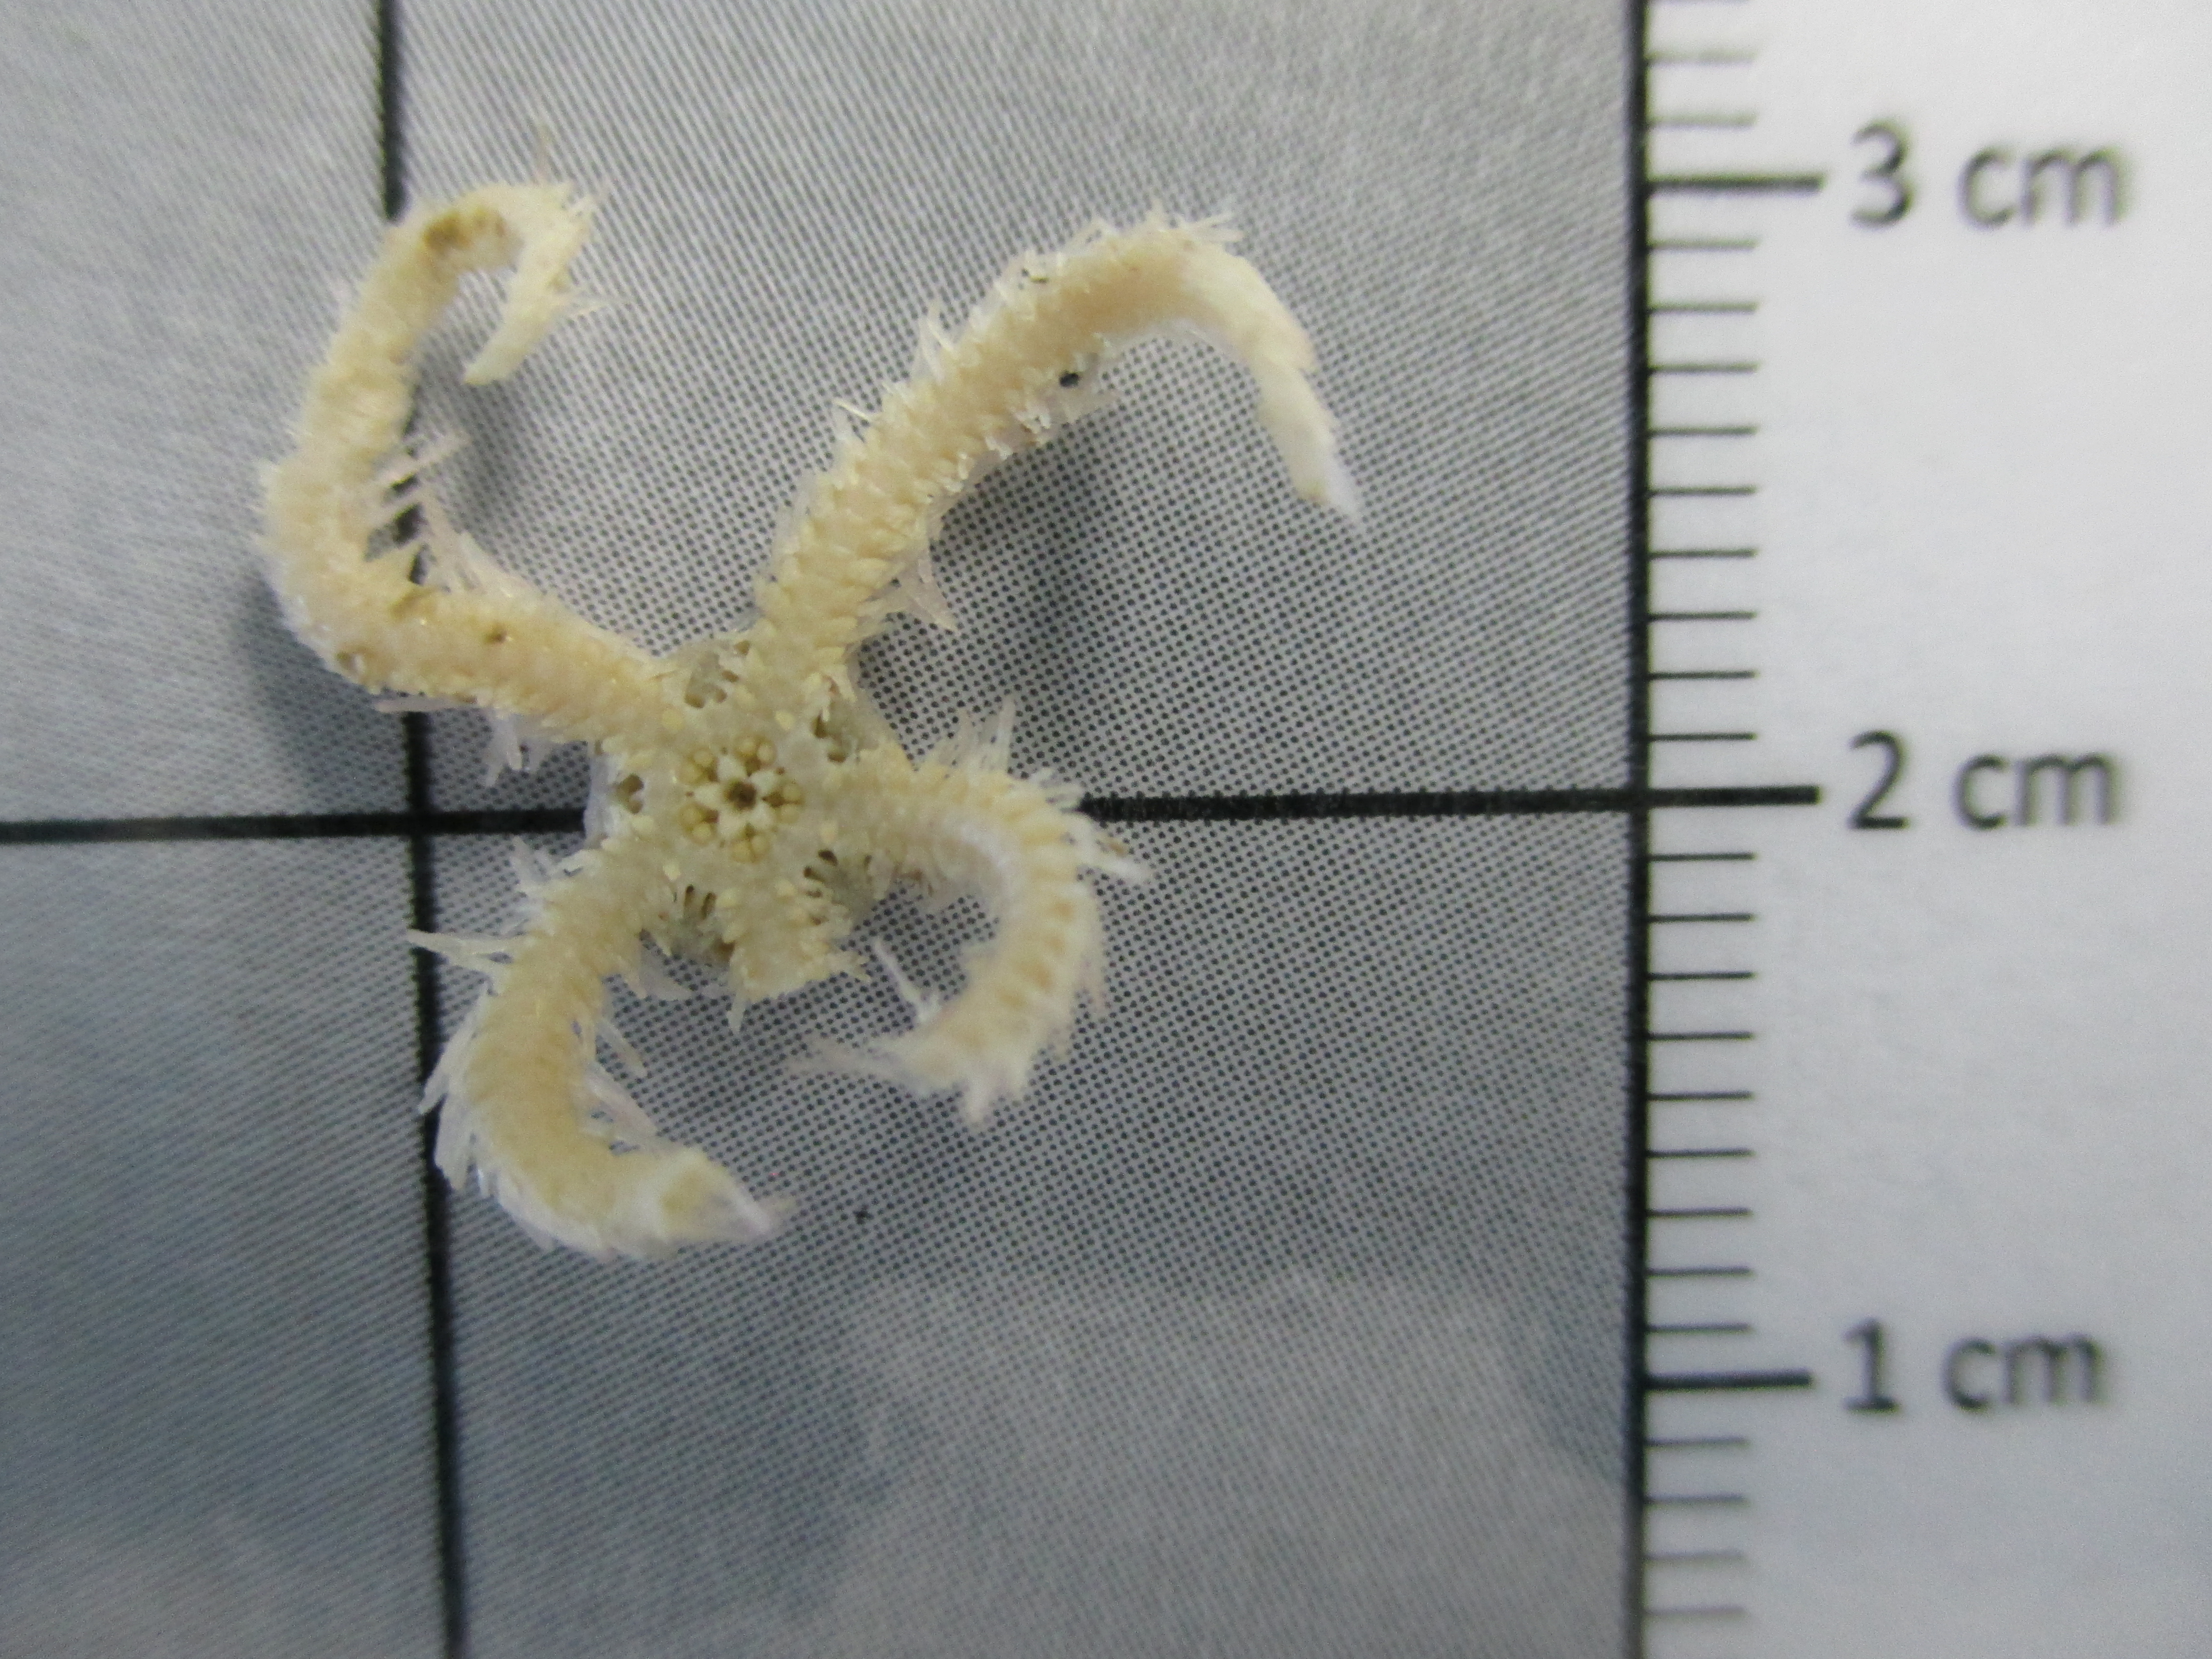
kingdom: Animalia
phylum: Echinodermata
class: Ophiuroidea
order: Amphilepidida
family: Ophiactidae
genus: Ophiactis
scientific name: Ophiactis abyssicola
